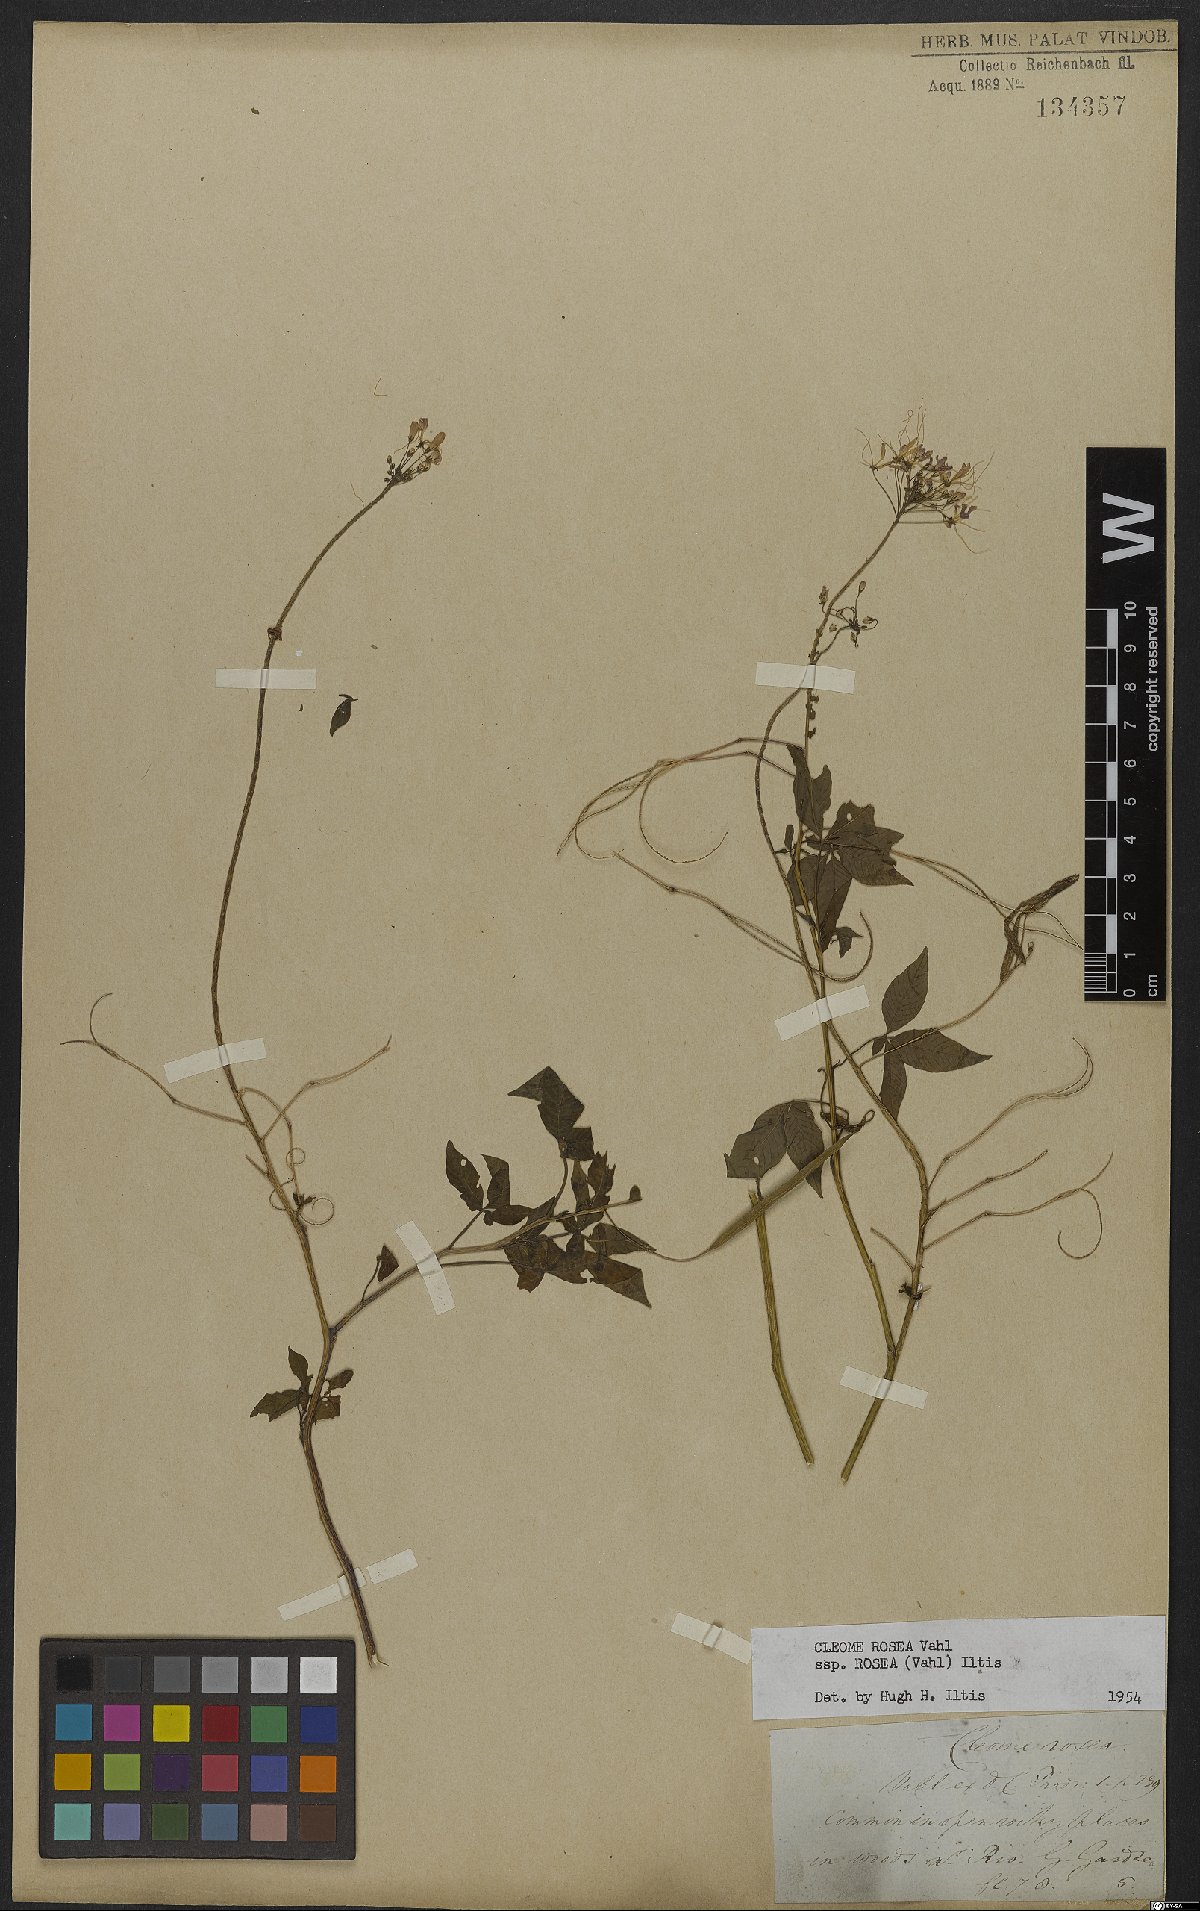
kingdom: Plantae
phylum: Tracheophyta
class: Magnoliopsida
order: Brassicales
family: Cleomaceae
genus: Tarenaya
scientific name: Tarenaya rosea
